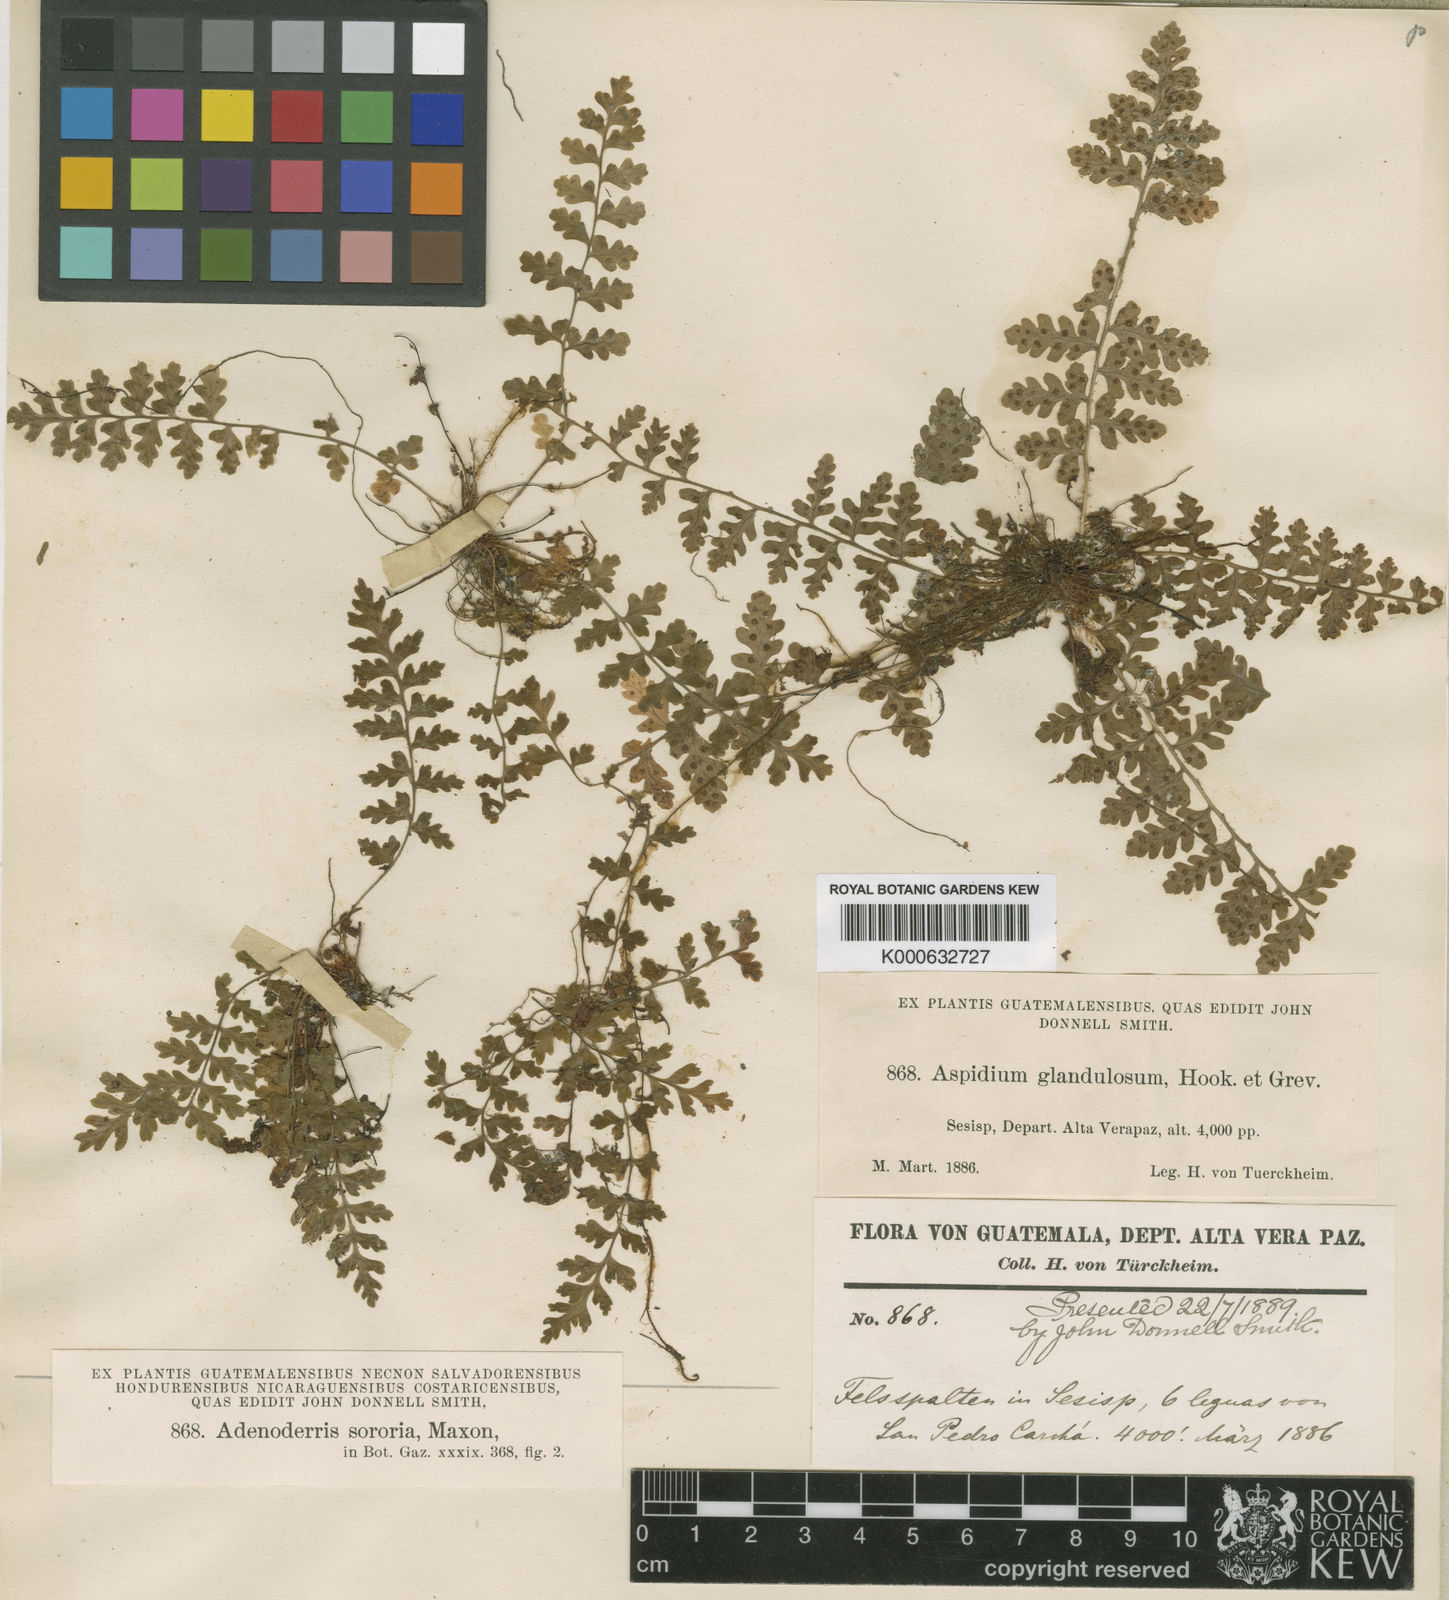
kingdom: Plantae
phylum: Tracheophyta
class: Polypodiopsida
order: Polypodiales
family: Dryopteridaceae
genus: Dryopteris
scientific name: Dryopteris sororia
